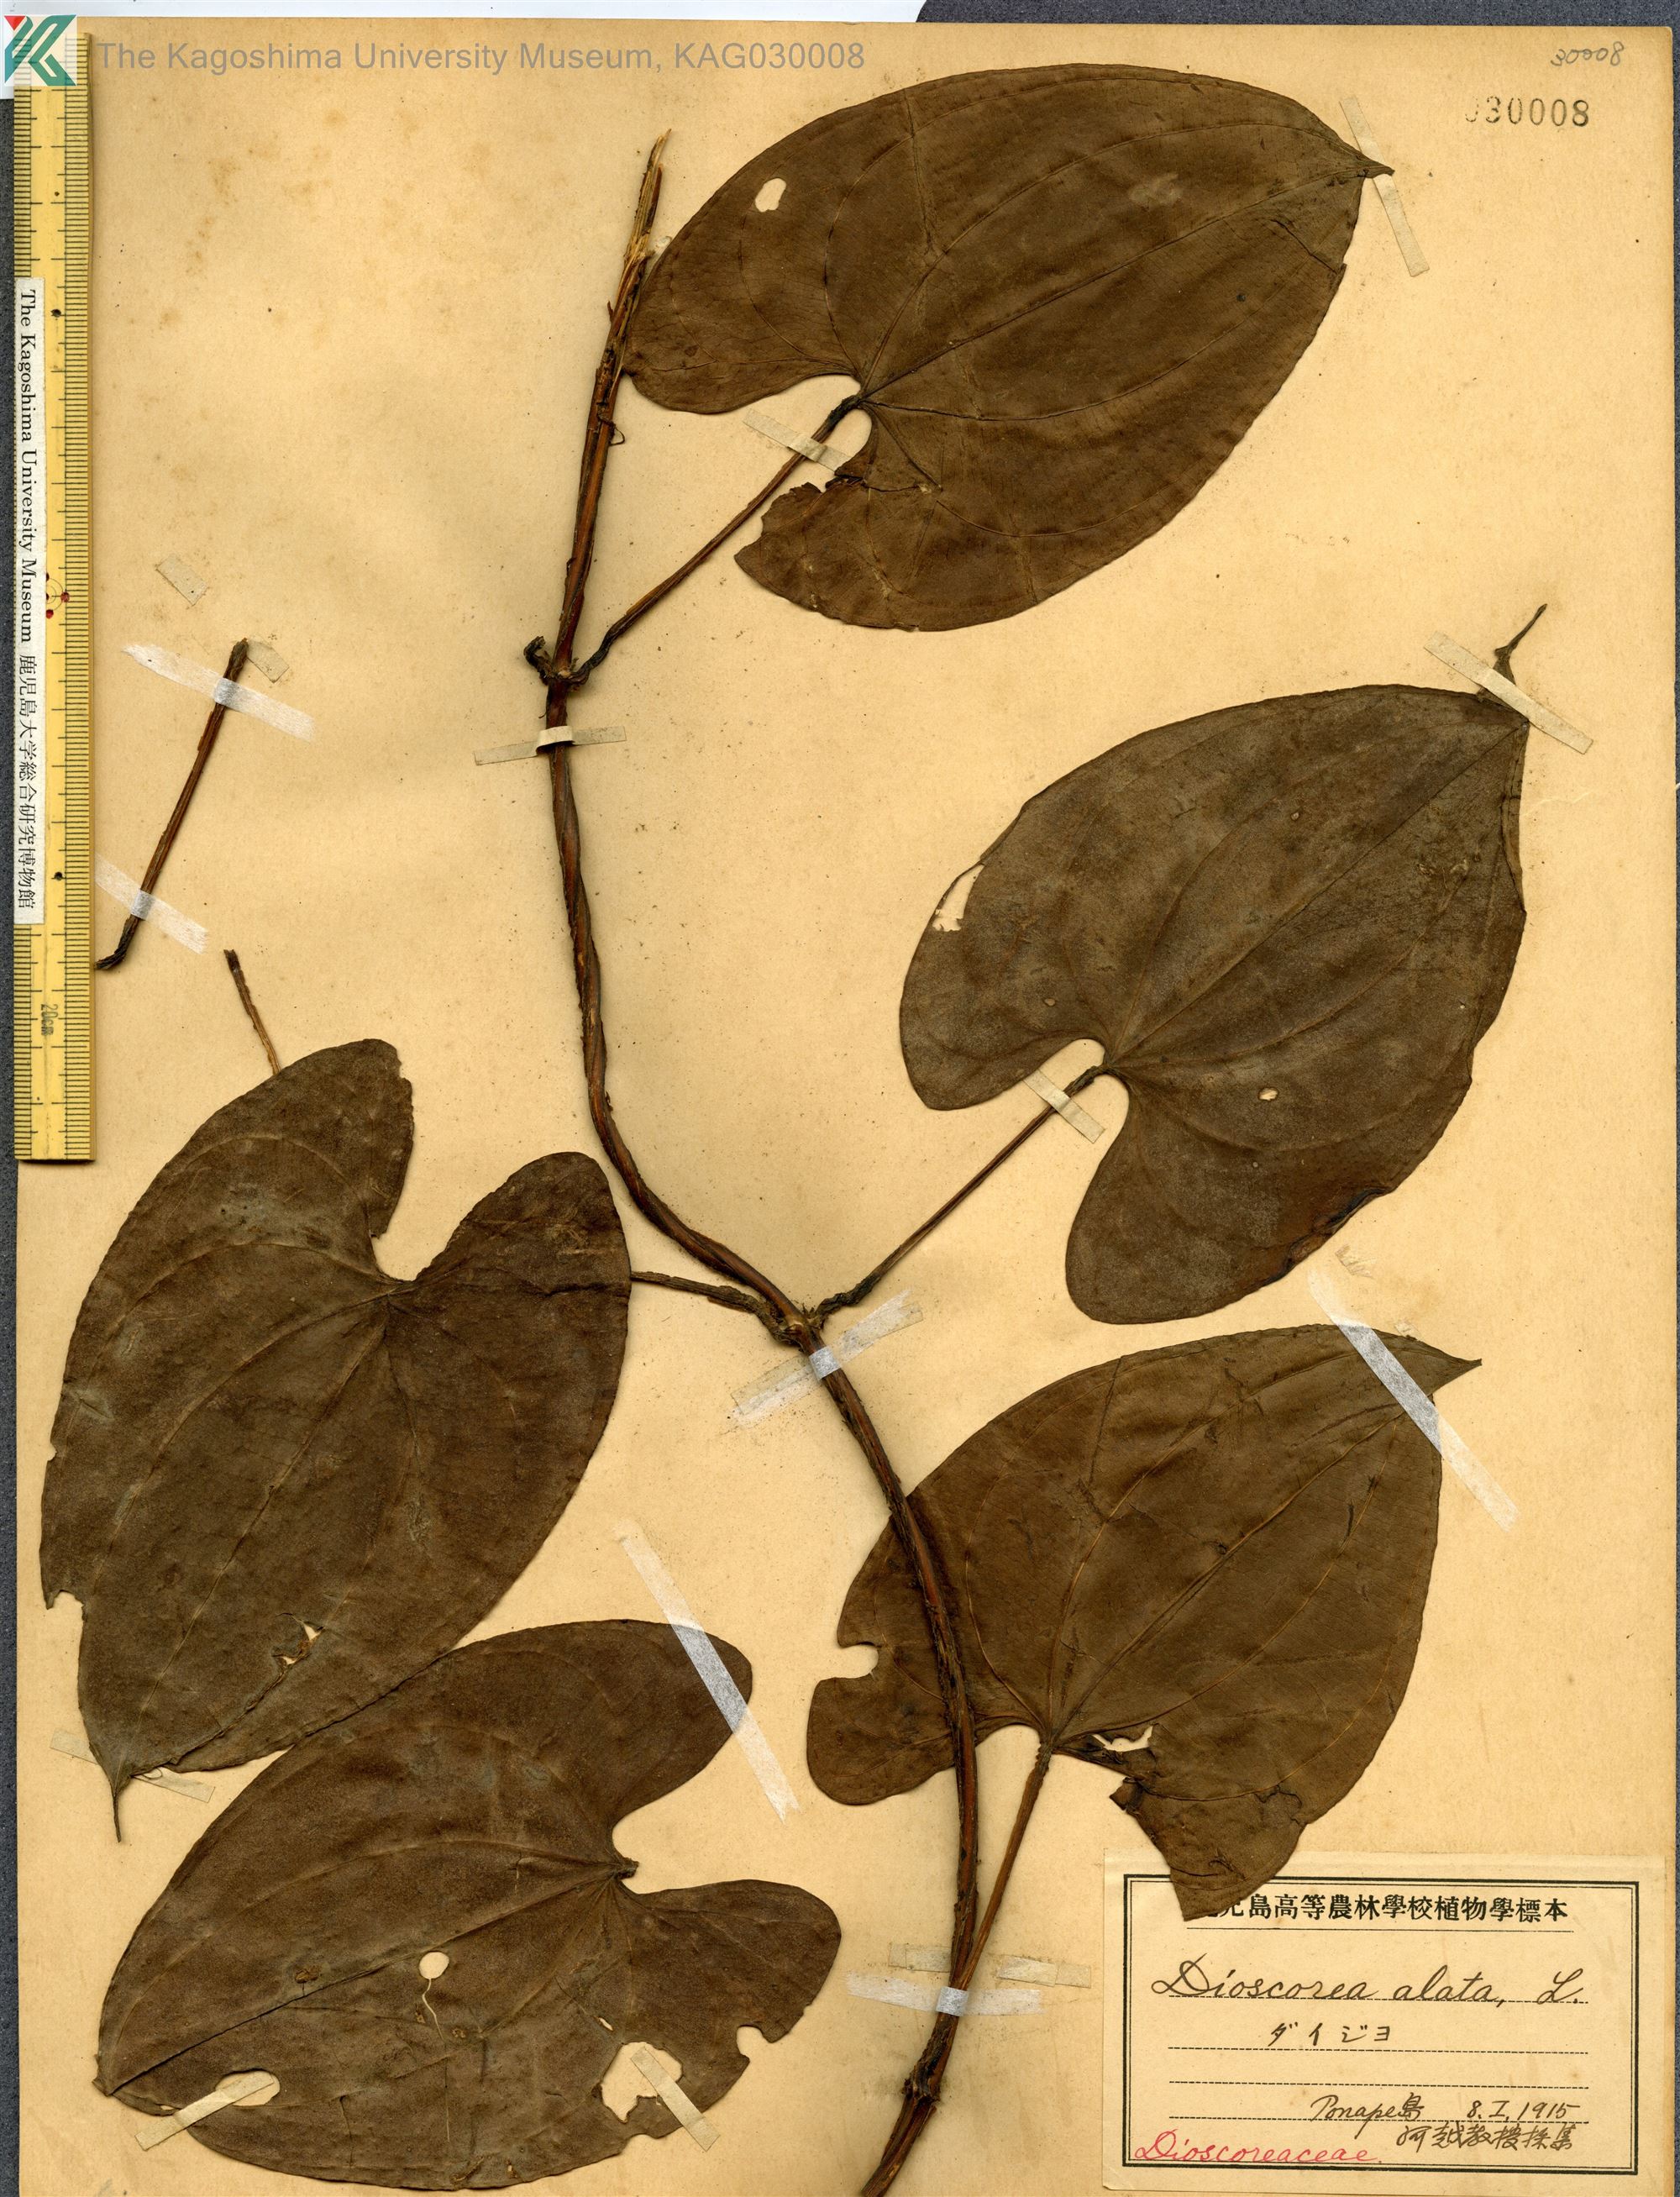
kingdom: Plantae
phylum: Tracheophyta
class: Liliopsida
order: Dioscoreales
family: Dioscoreaceae
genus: Dioscorea
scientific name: Dioscorea alata
